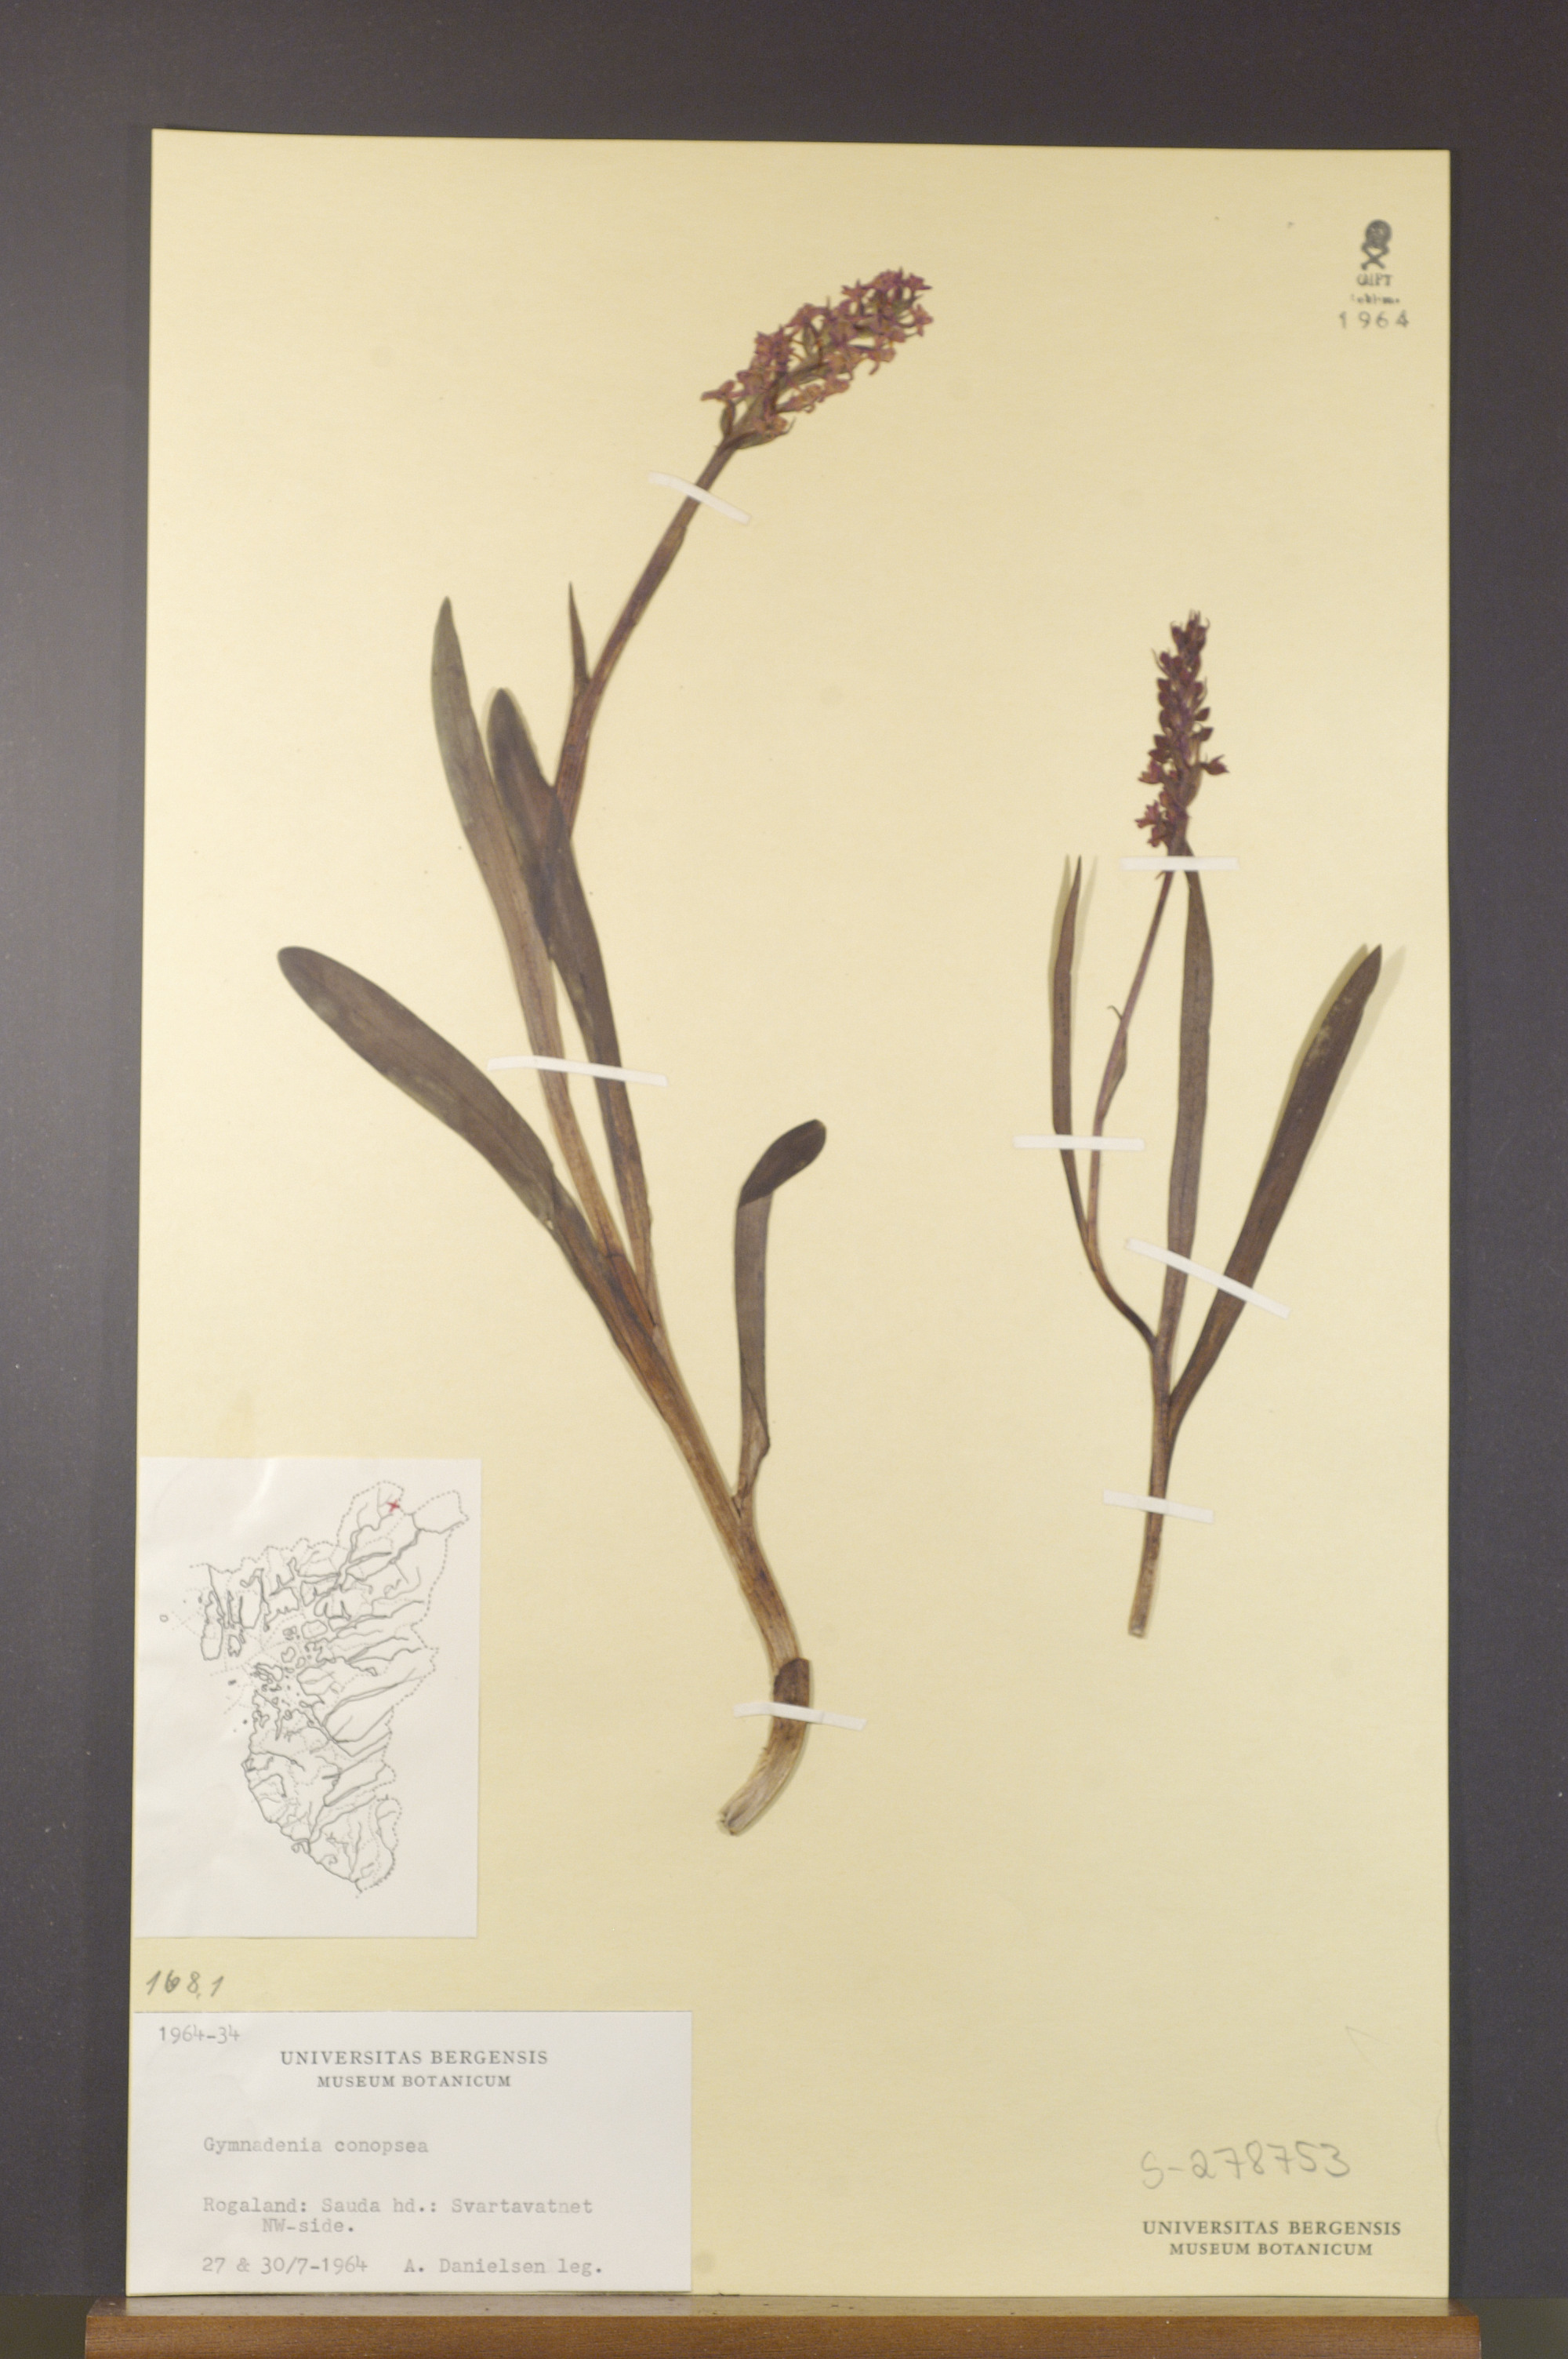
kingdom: Plantae
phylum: Tracheophyta
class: Liliopsida
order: Asparagales
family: Orchidaceae
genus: Gymnadenia
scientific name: Gymnadenia conopsea
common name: Fragrant orchid
